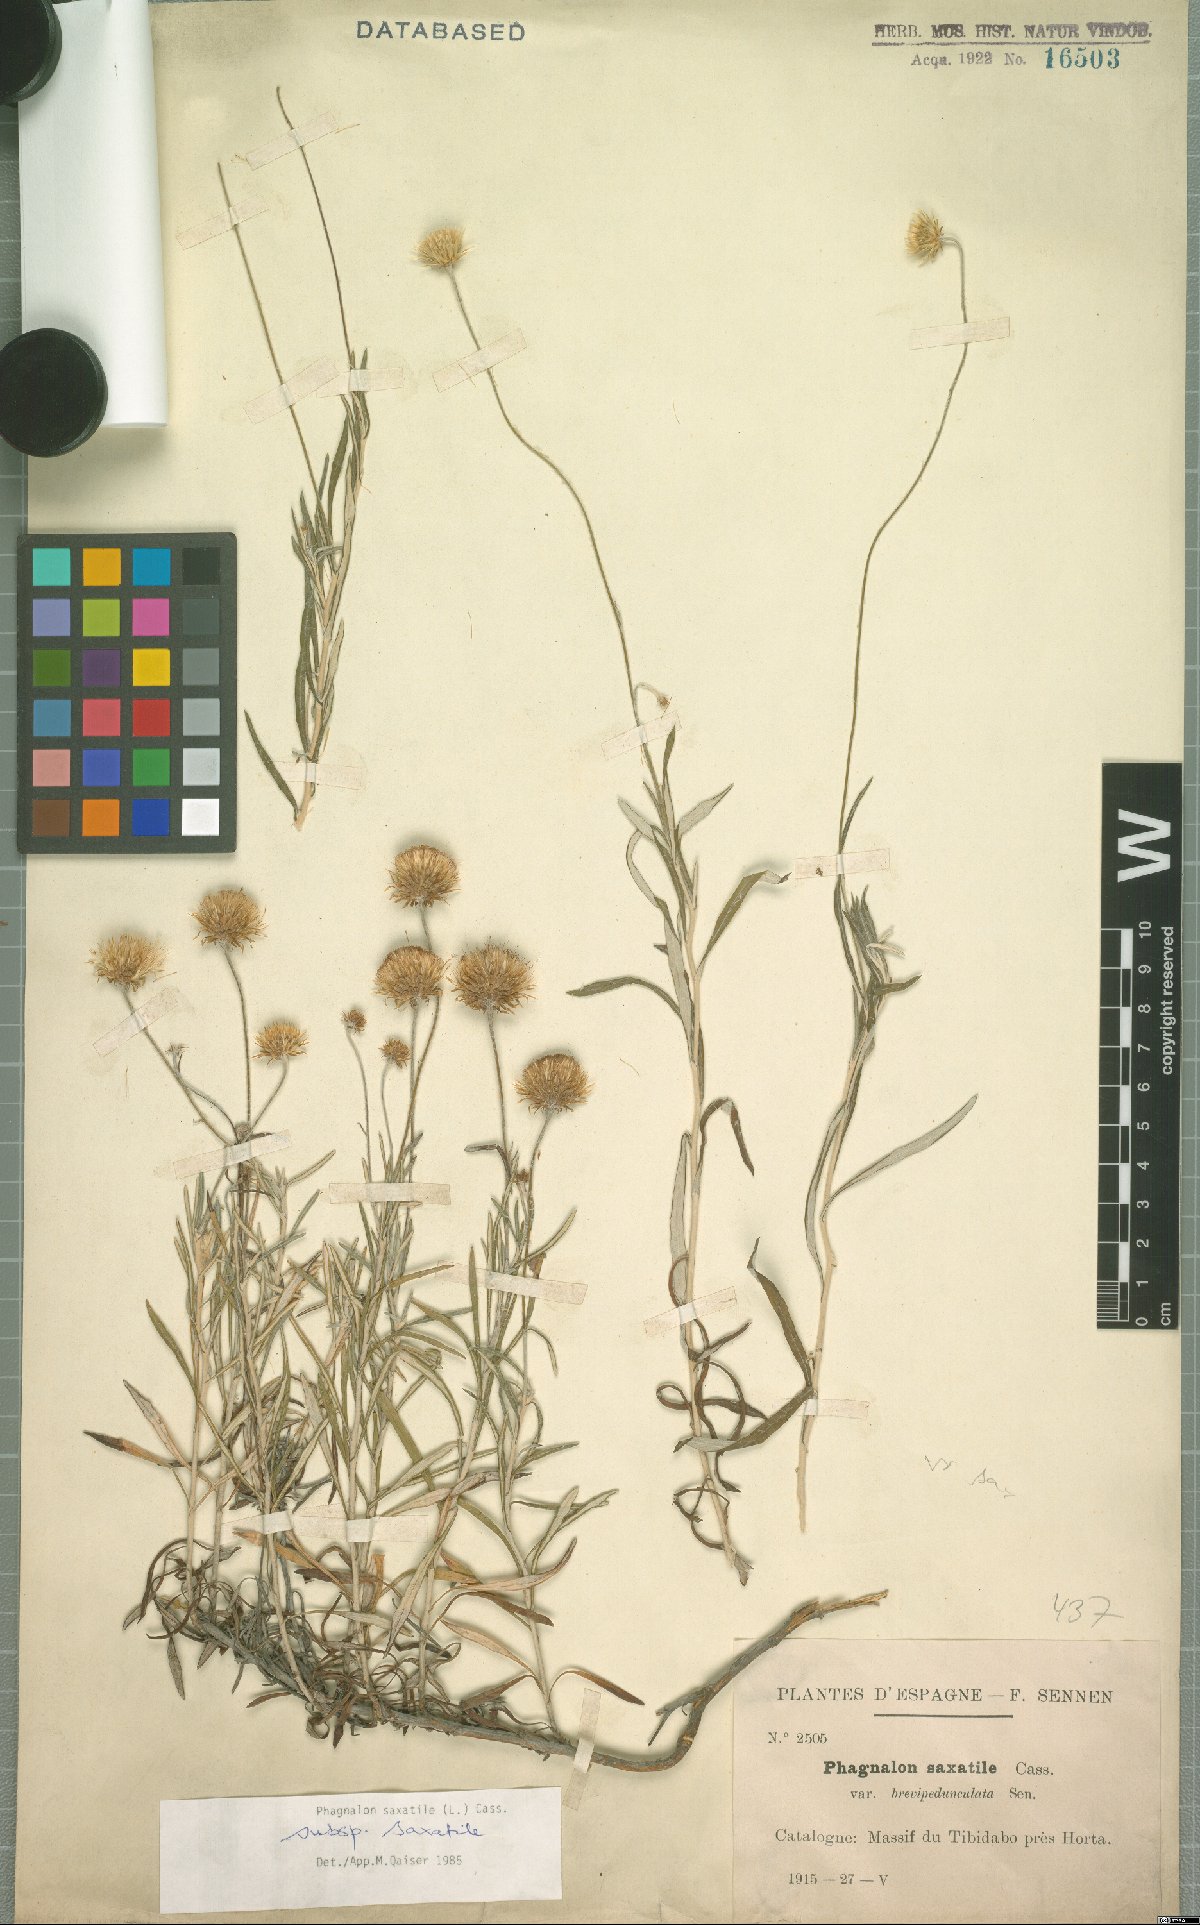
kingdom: Plantae
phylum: Tracheophyta
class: Magnoliopsida
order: Asterales
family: Asteraceae
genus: Phagnalon
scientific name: Phagnalon saxatile
